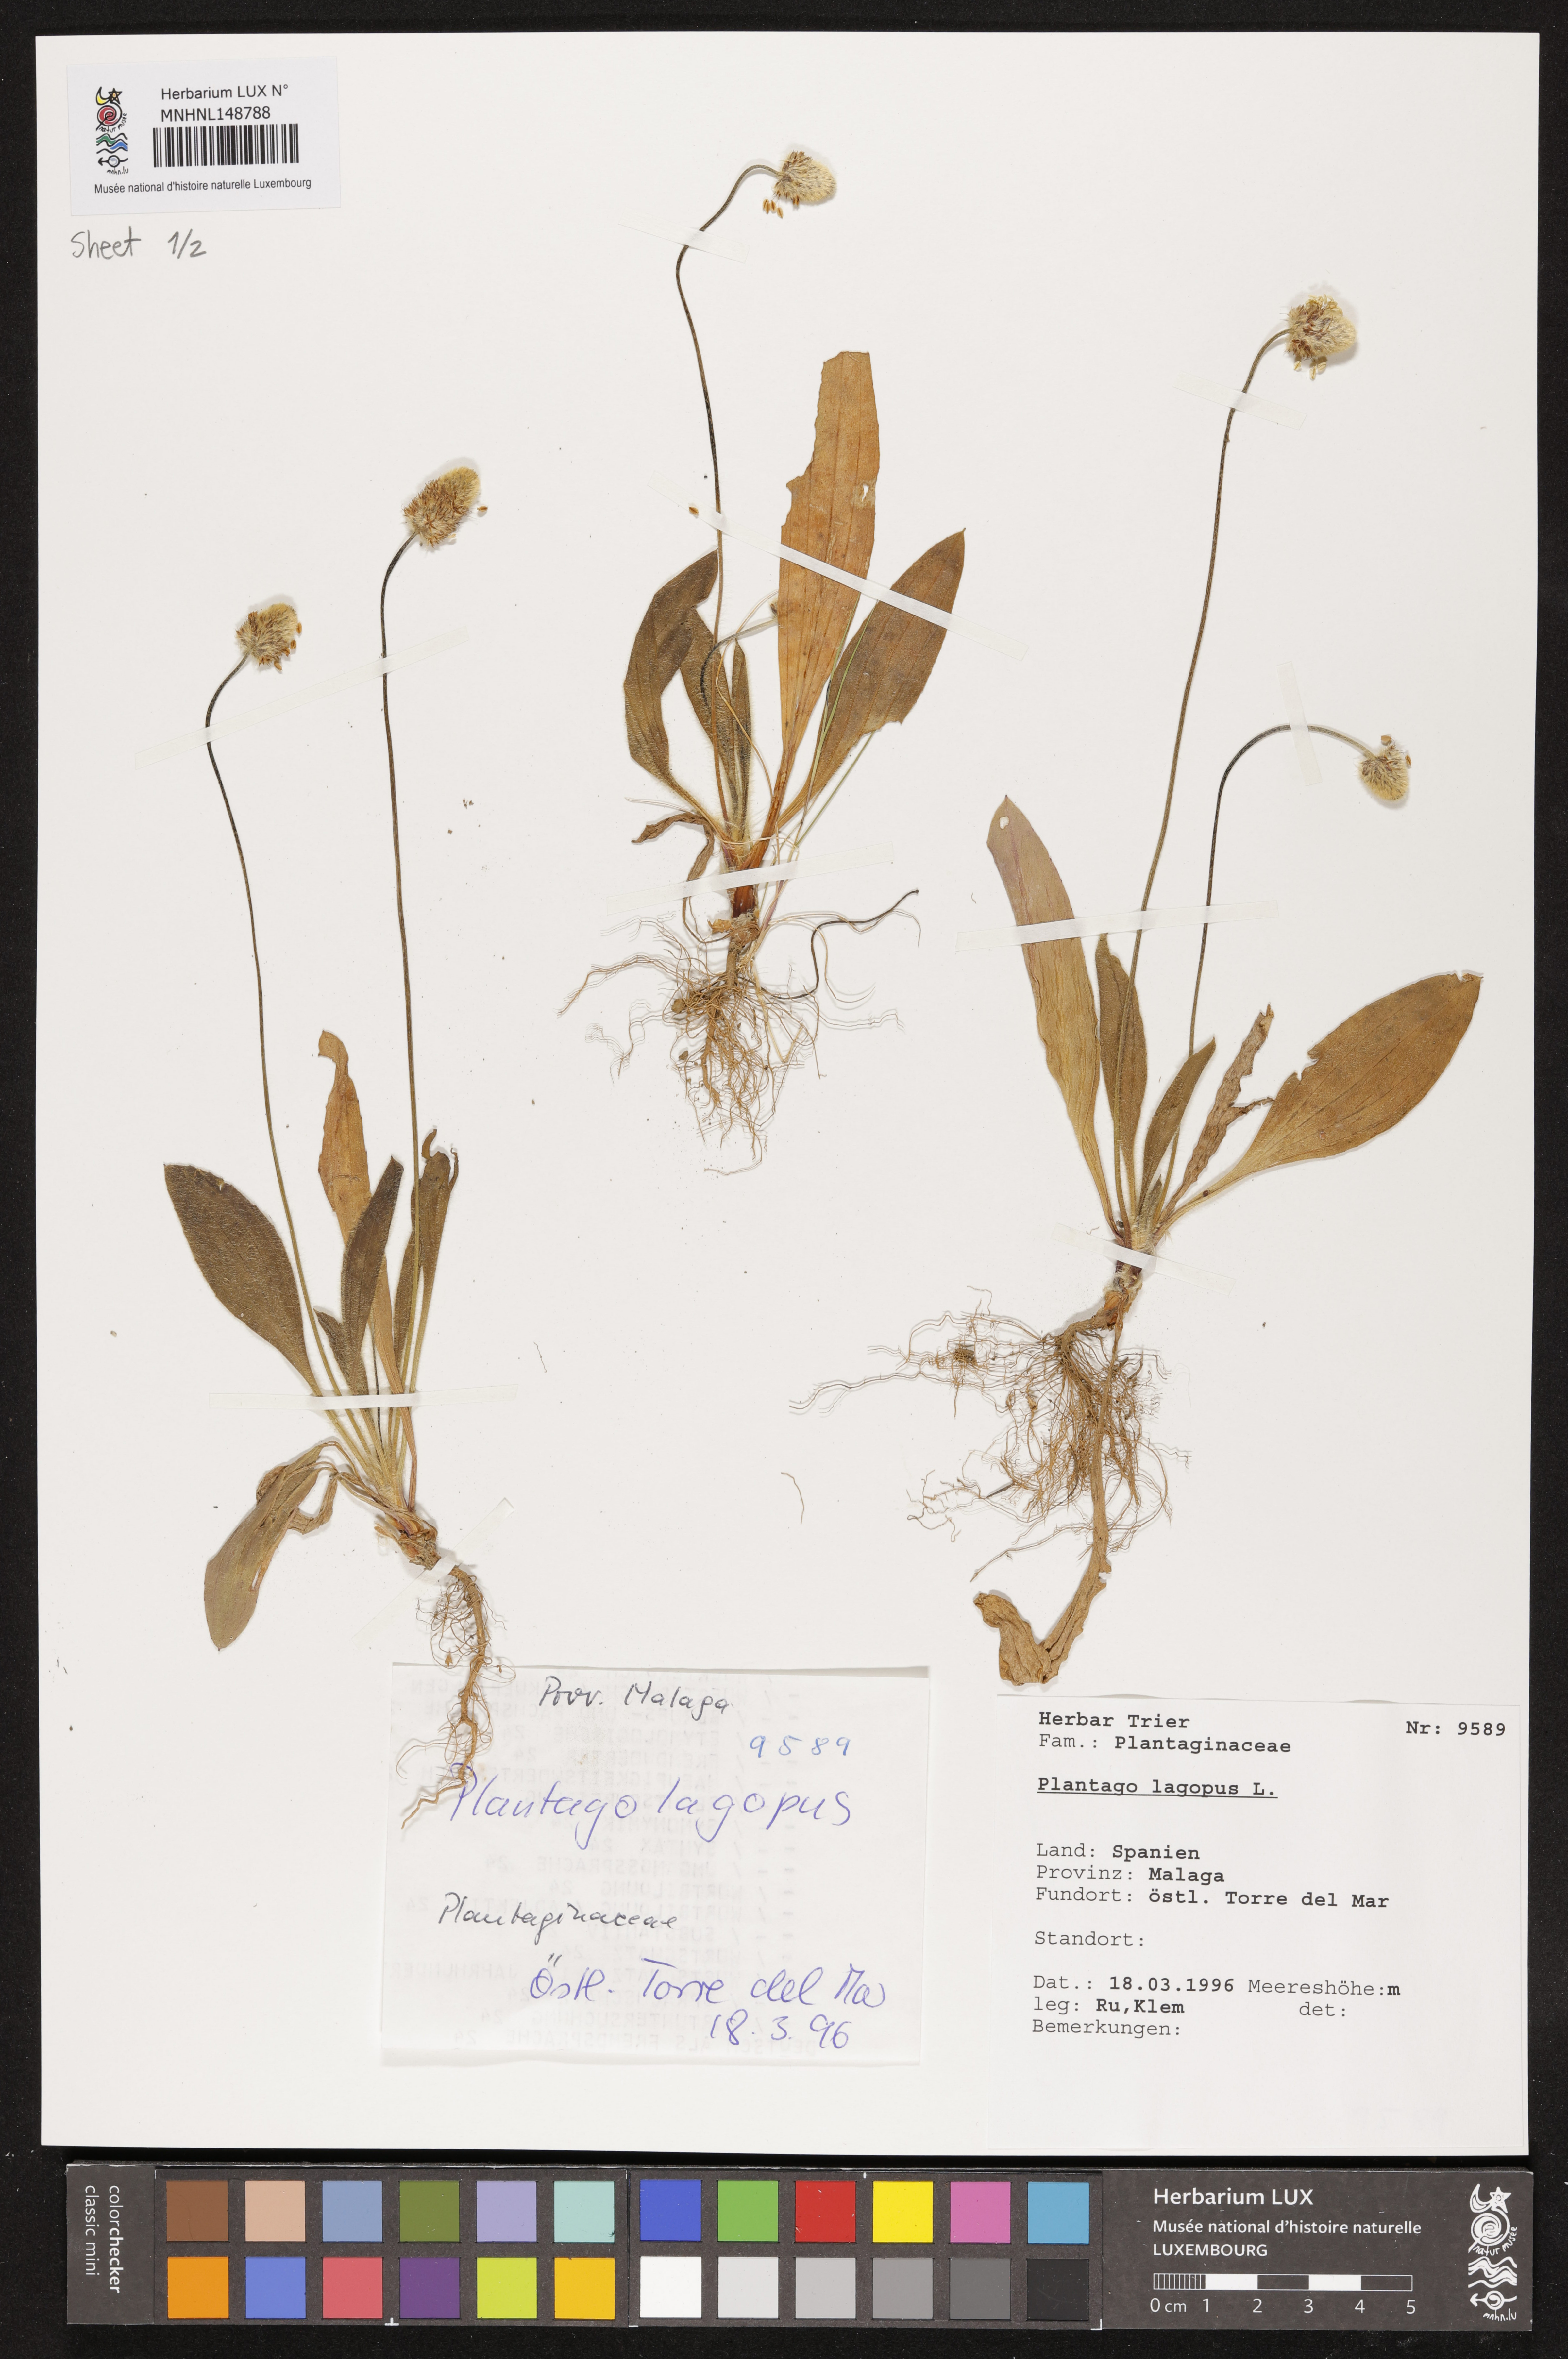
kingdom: Plantae
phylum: Tracheophyta
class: Magnoliopsida
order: Lamiales
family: Plantaginaceae
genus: Plantago
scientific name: Plantago lagopus
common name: Hare-foot plantain
